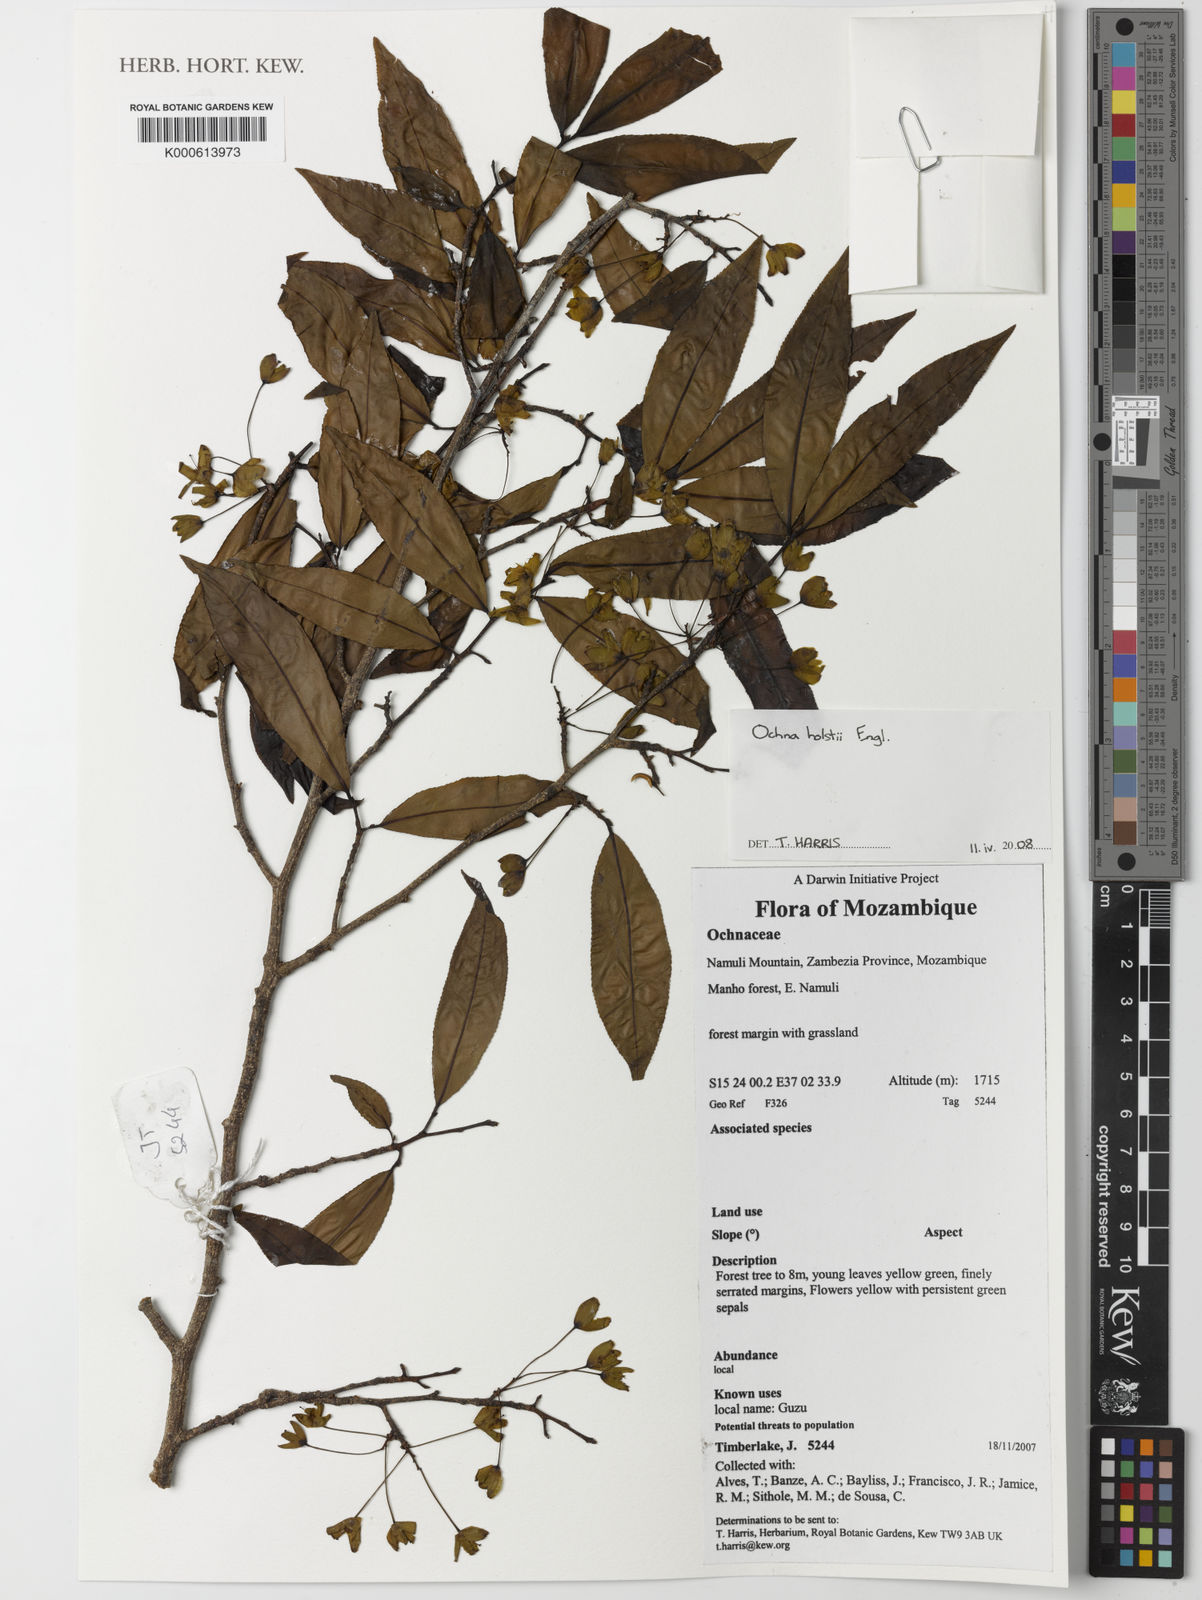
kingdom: Plantae
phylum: Tracheophyta
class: Magnoliopsida
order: Malpighiales
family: Ochnaceae
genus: Ochna
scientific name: Ochna holstii
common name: Red ironwood
